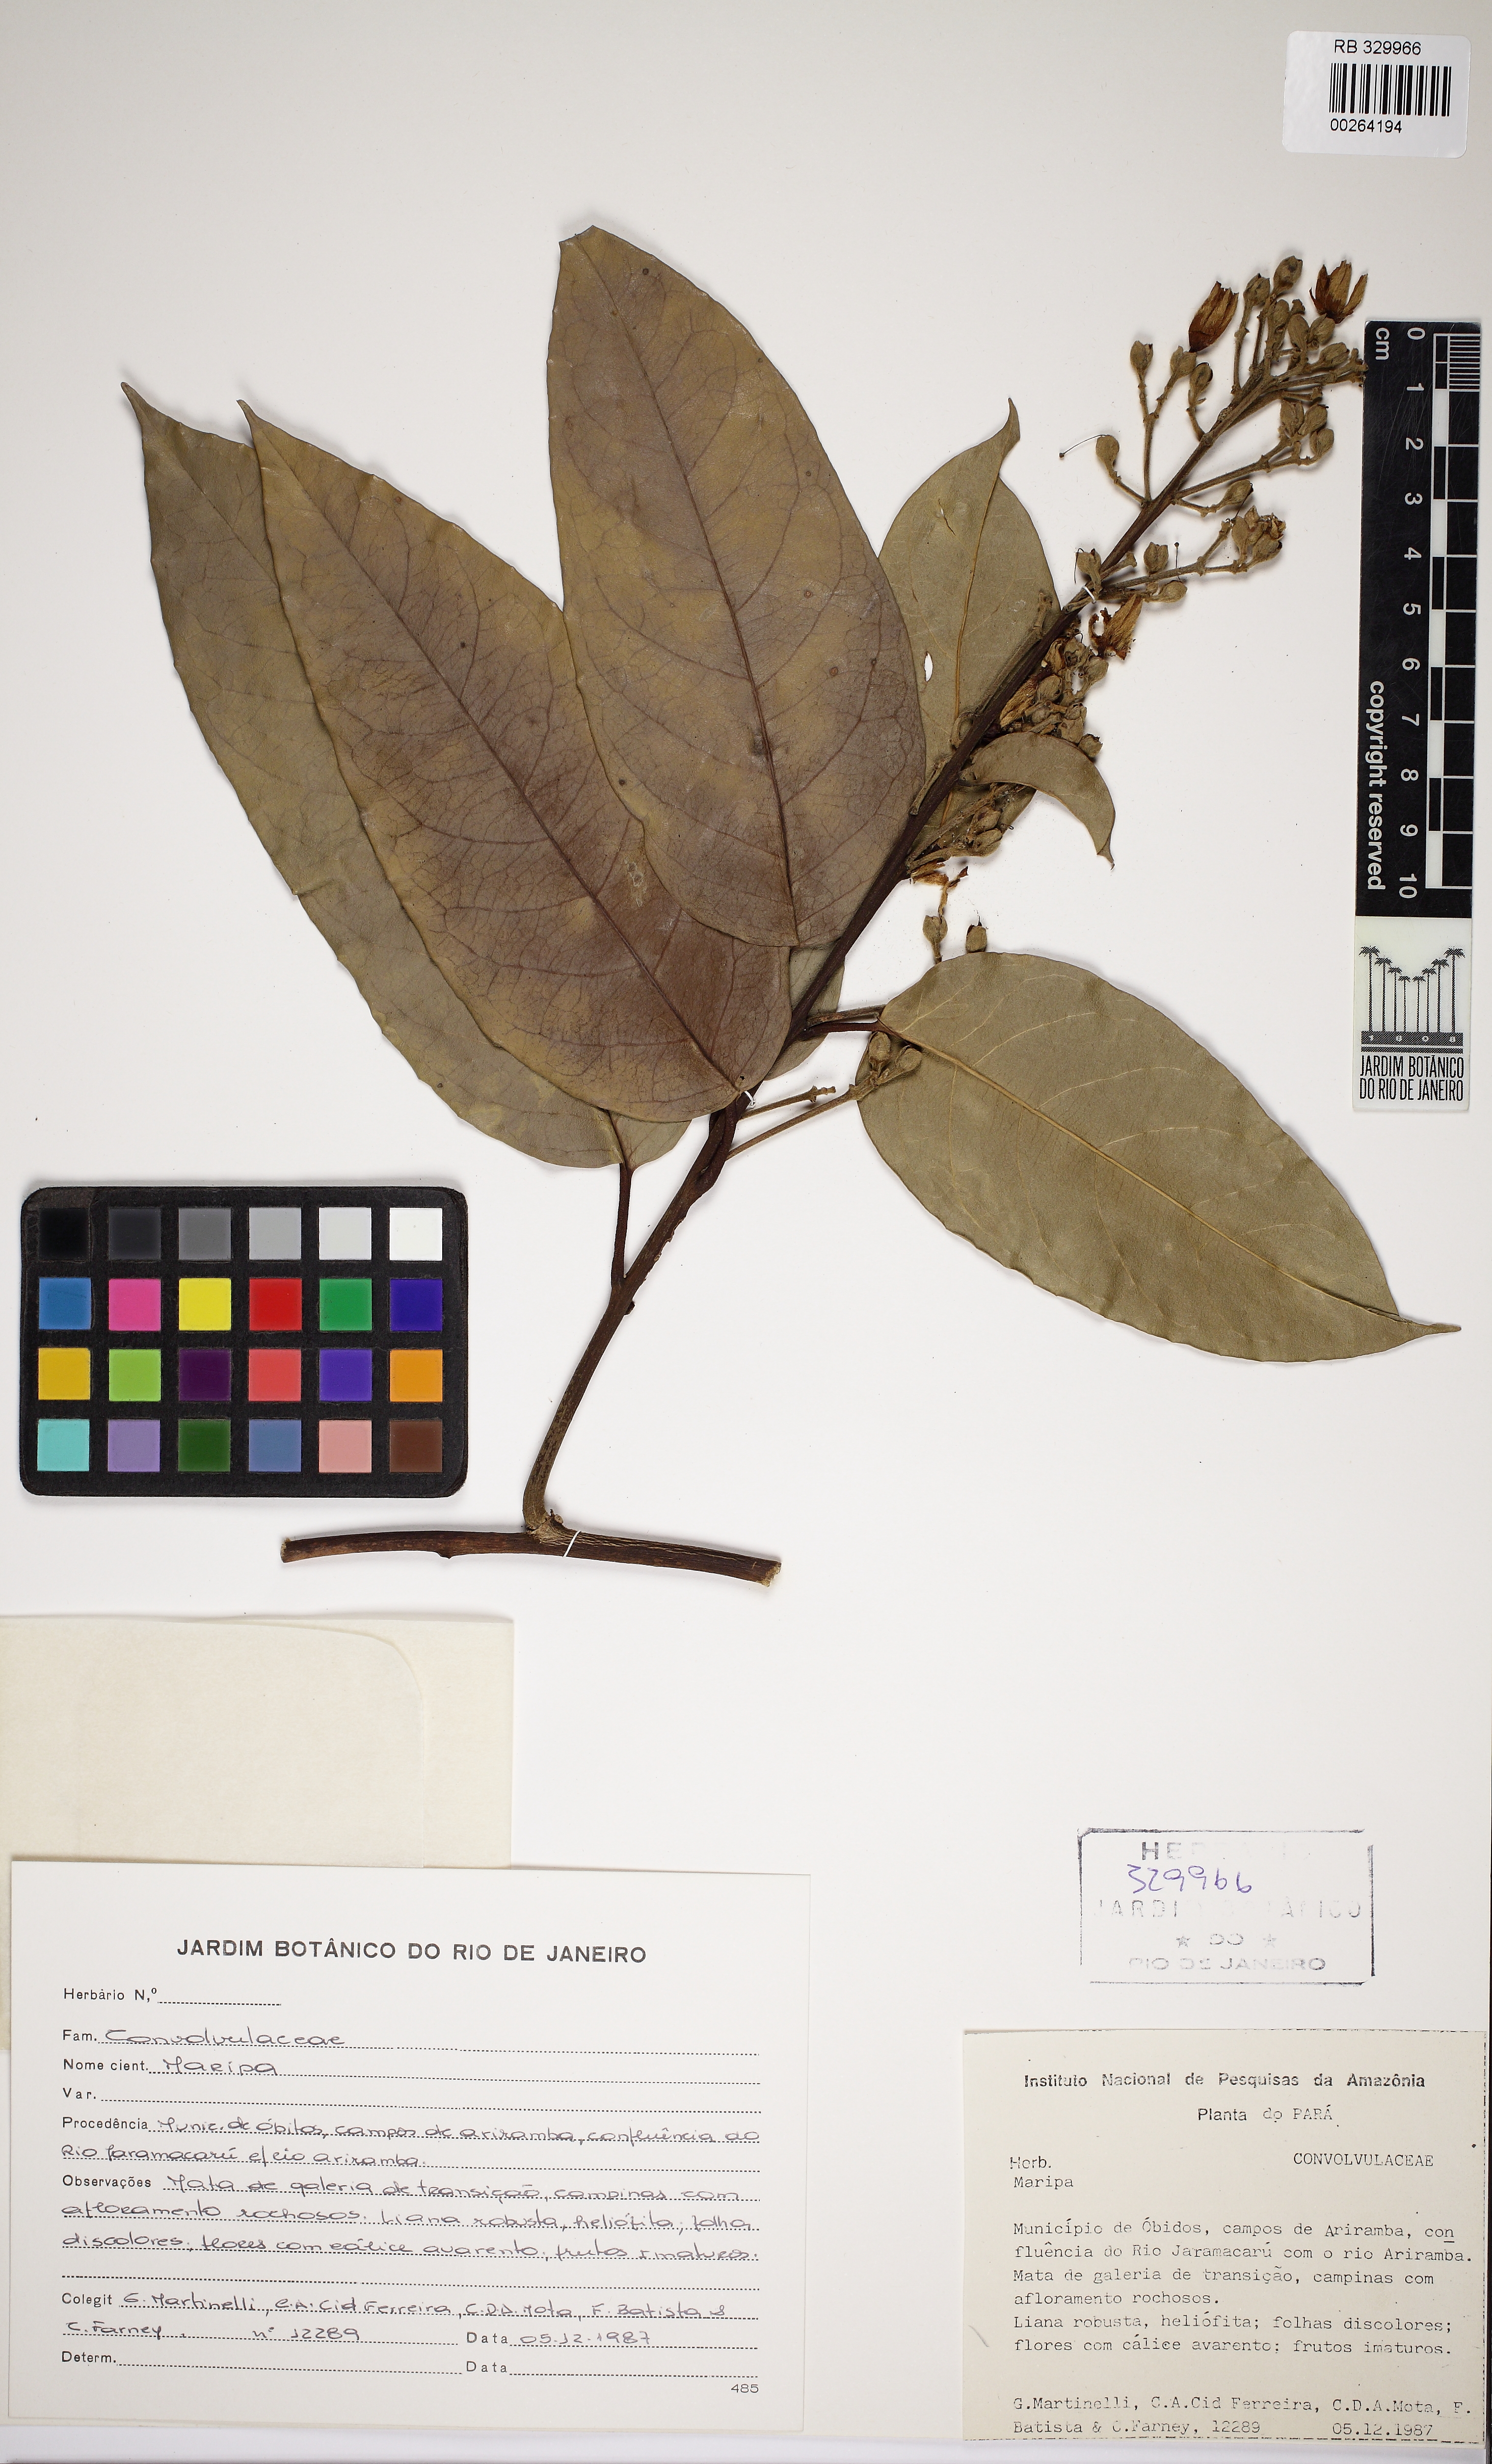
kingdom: Plantae
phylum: Tracheophyta
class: Magnoliopsida
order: Solanales
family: Convolvulaceae
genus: Maripa
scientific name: Maripa scandens
